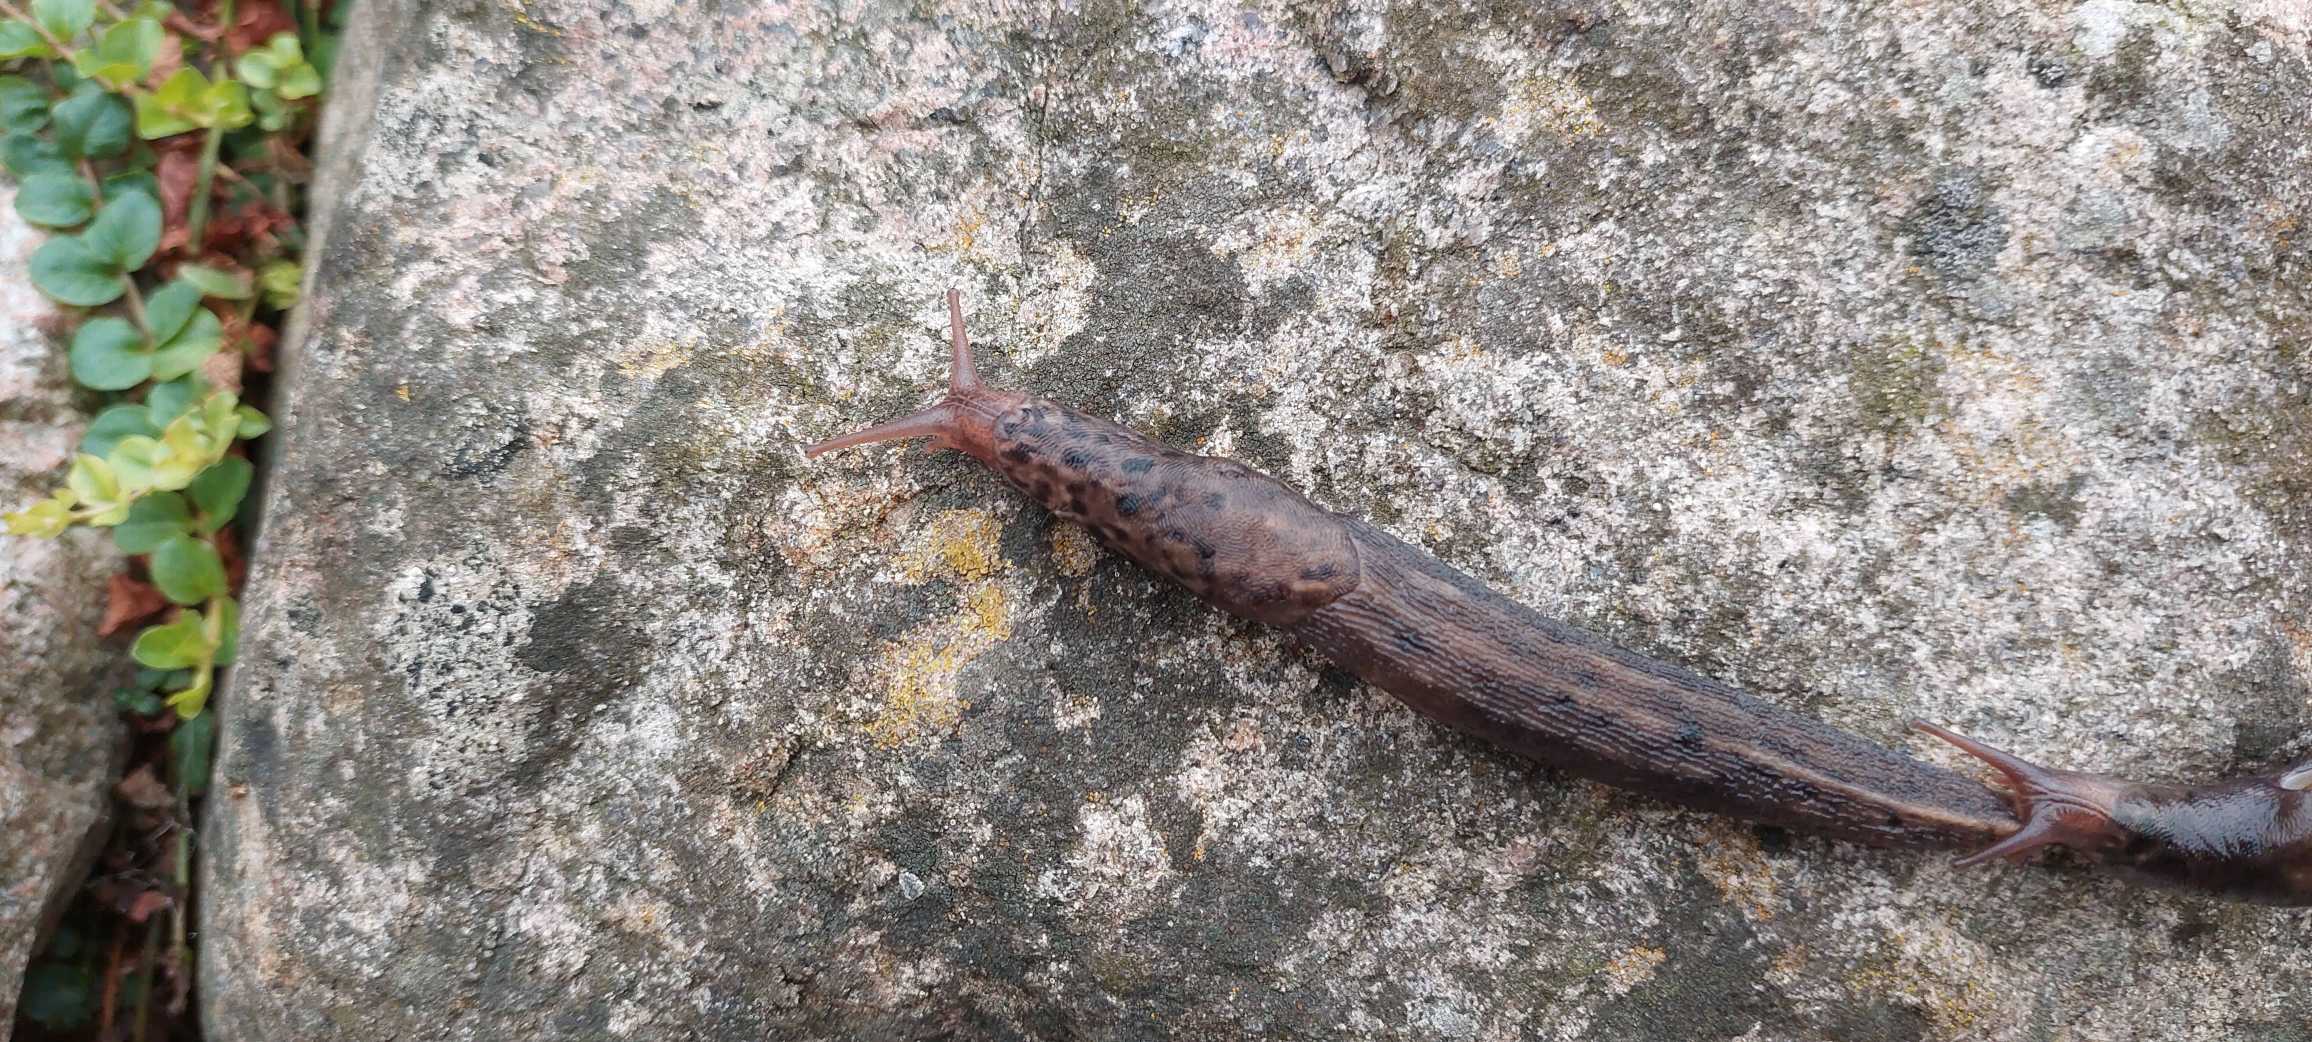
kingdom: Animalia
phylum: Mollusca
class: Gastropoda
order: Stylommatophora
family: Limacidae
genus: Limax
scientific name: Limax maximus
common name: Pantersnegl
